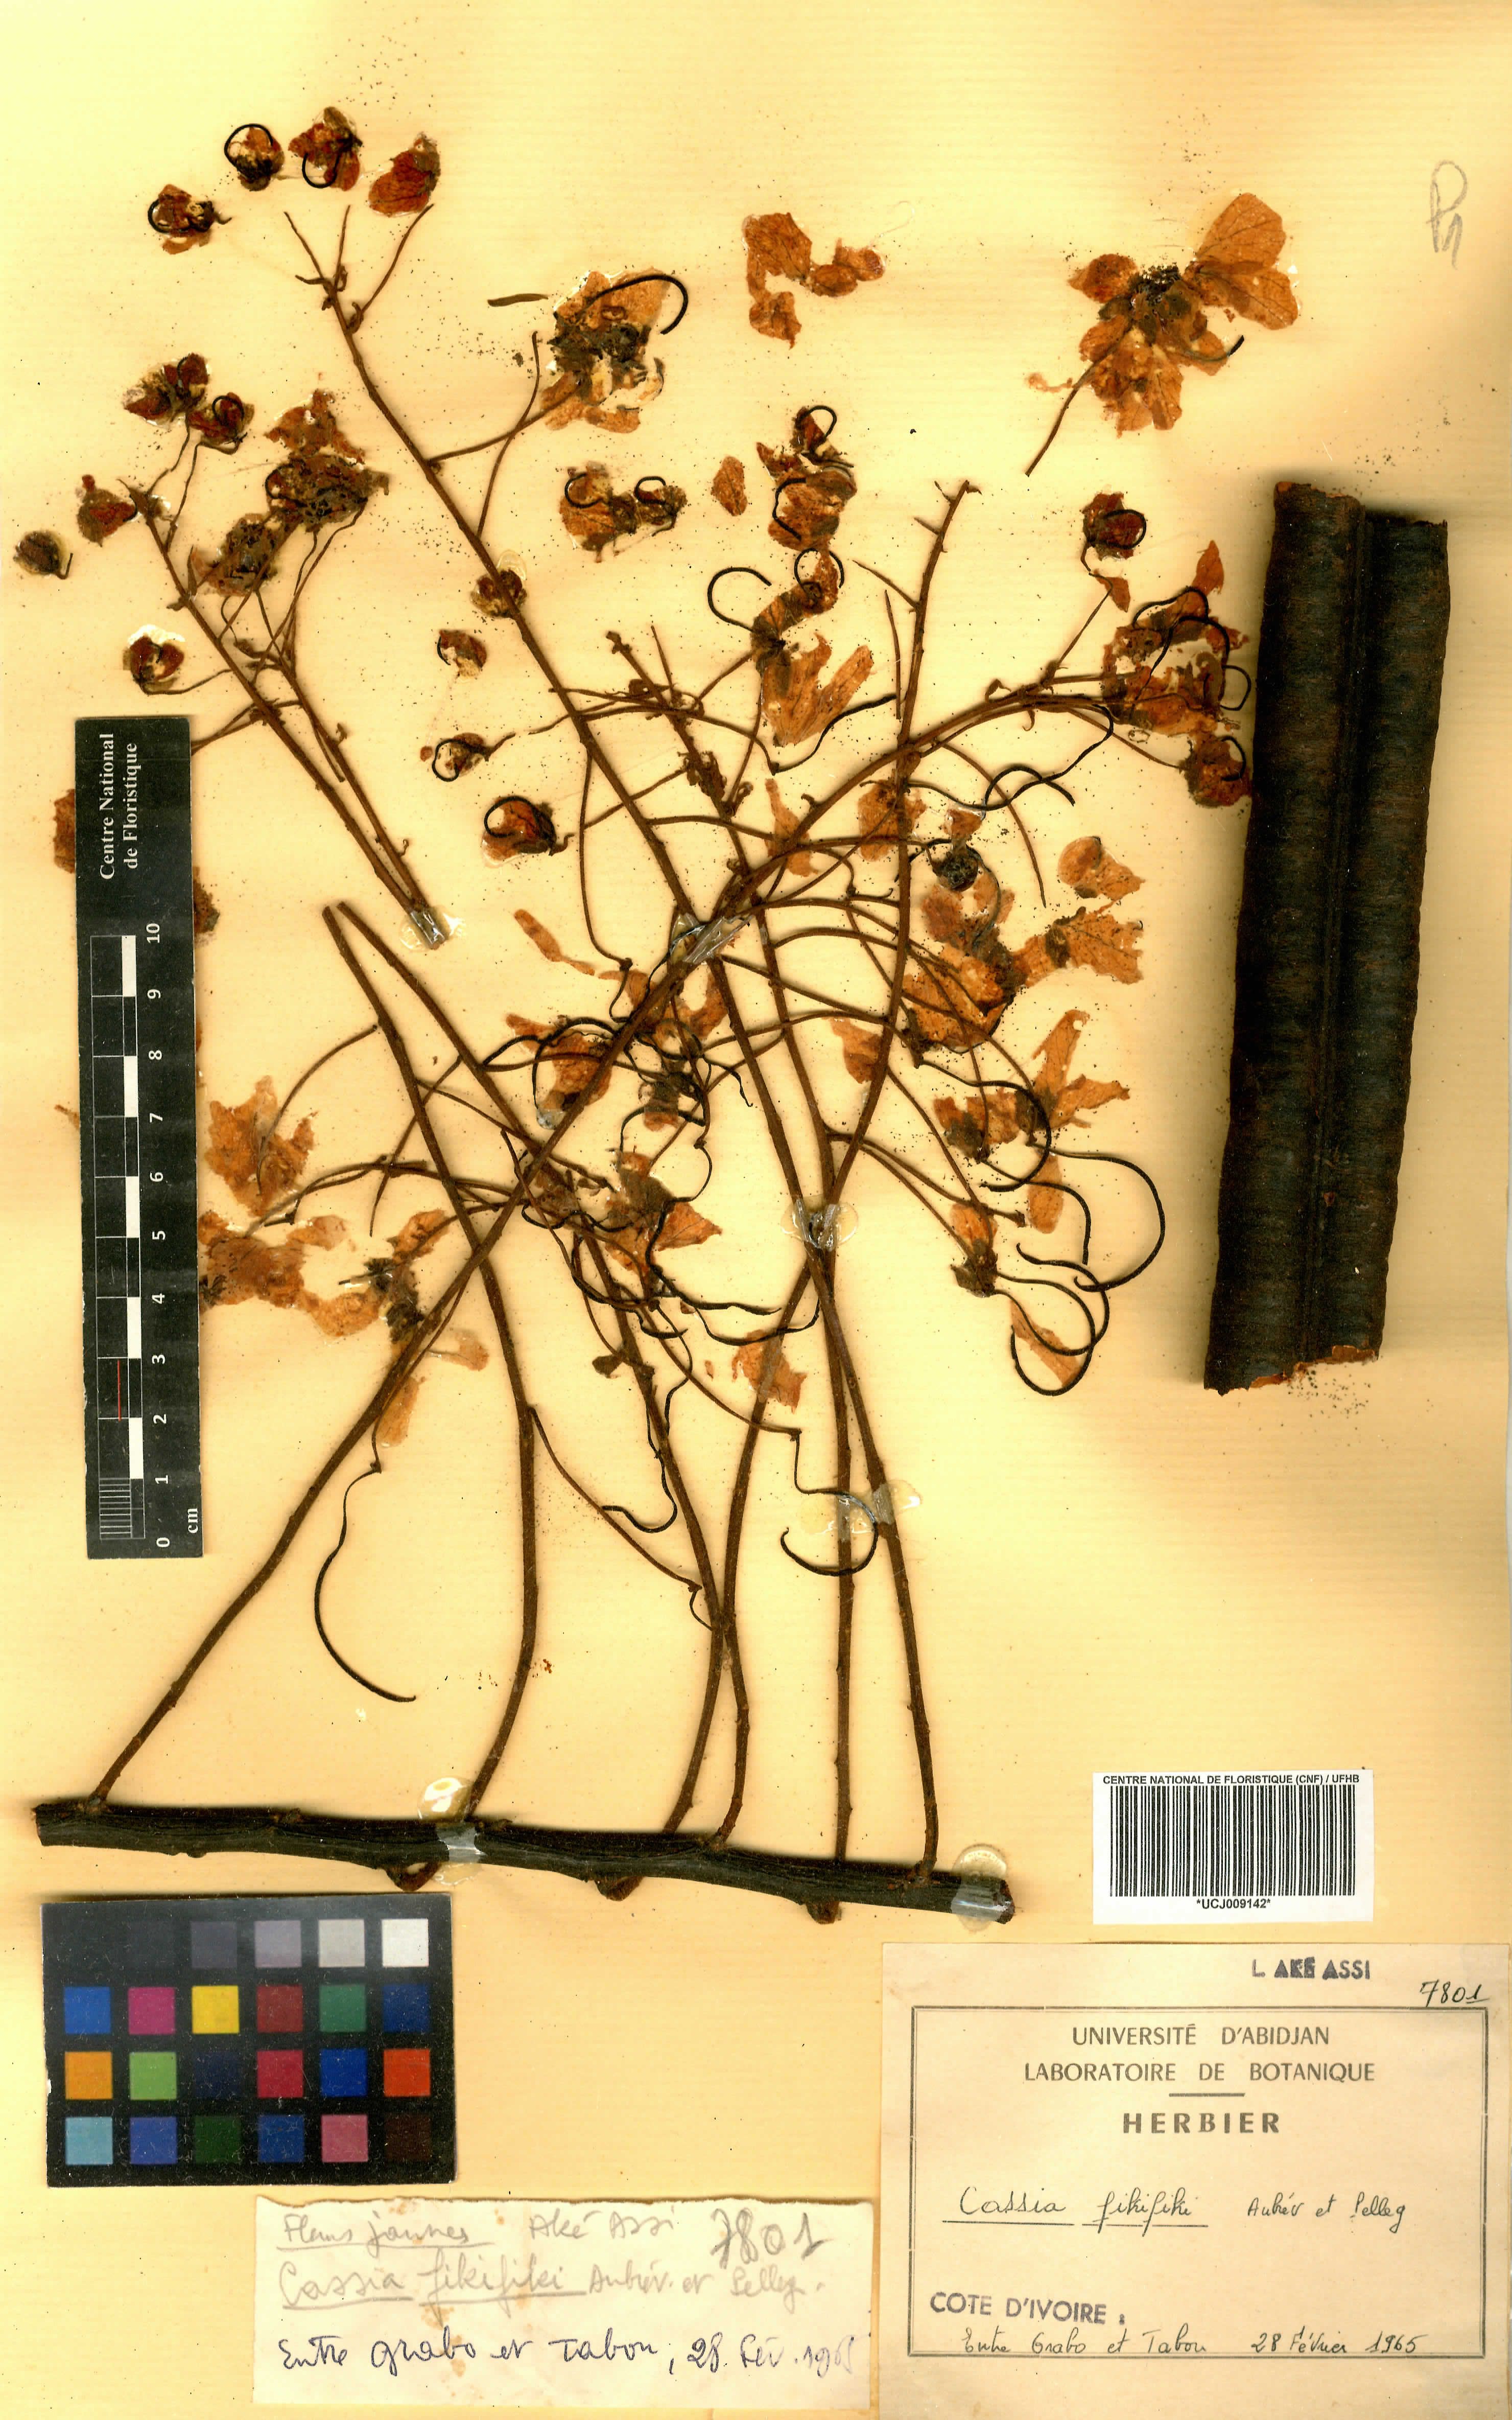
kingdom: Plantae
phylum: Tracheophyta
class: Magnoliopsida
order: Fabales
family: Fabaceae
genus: Cassia
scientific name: Cassia fikifiki
